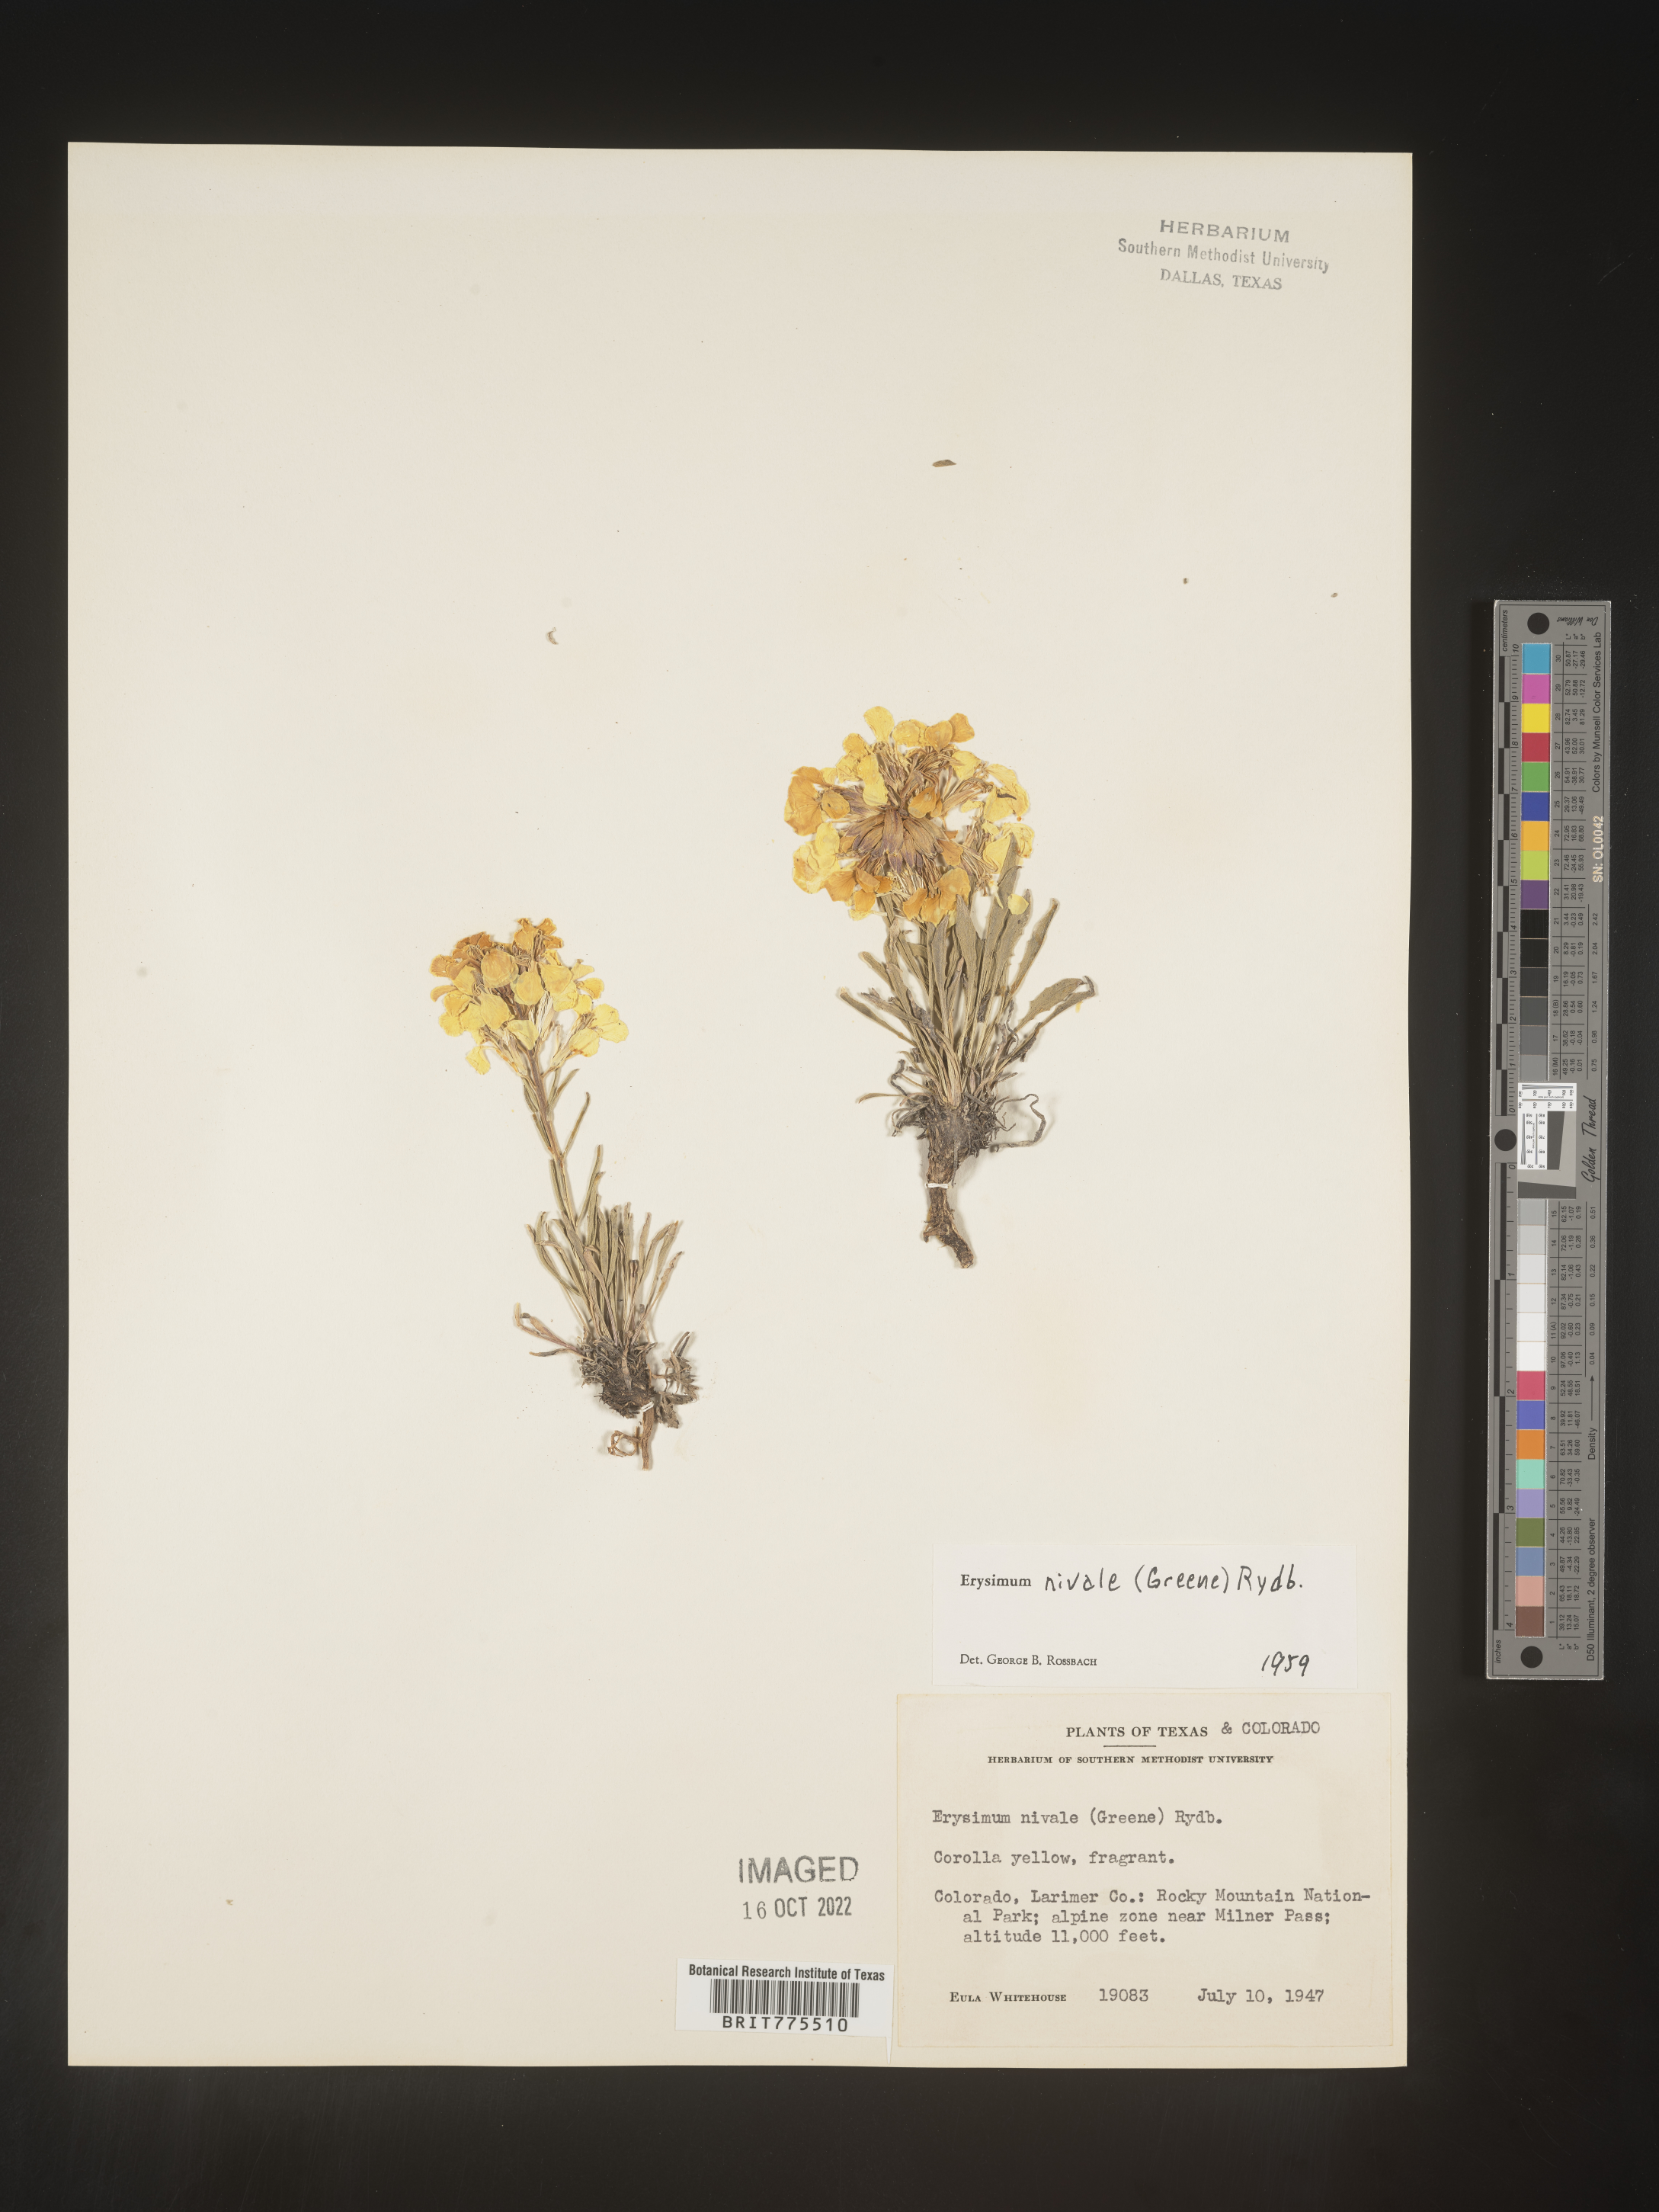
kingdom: Plantae
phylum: Tracheophyta
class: Magnoliopsida
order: Brassicales
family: Brassicaceae
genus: Erysimum
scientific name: Erysimum
